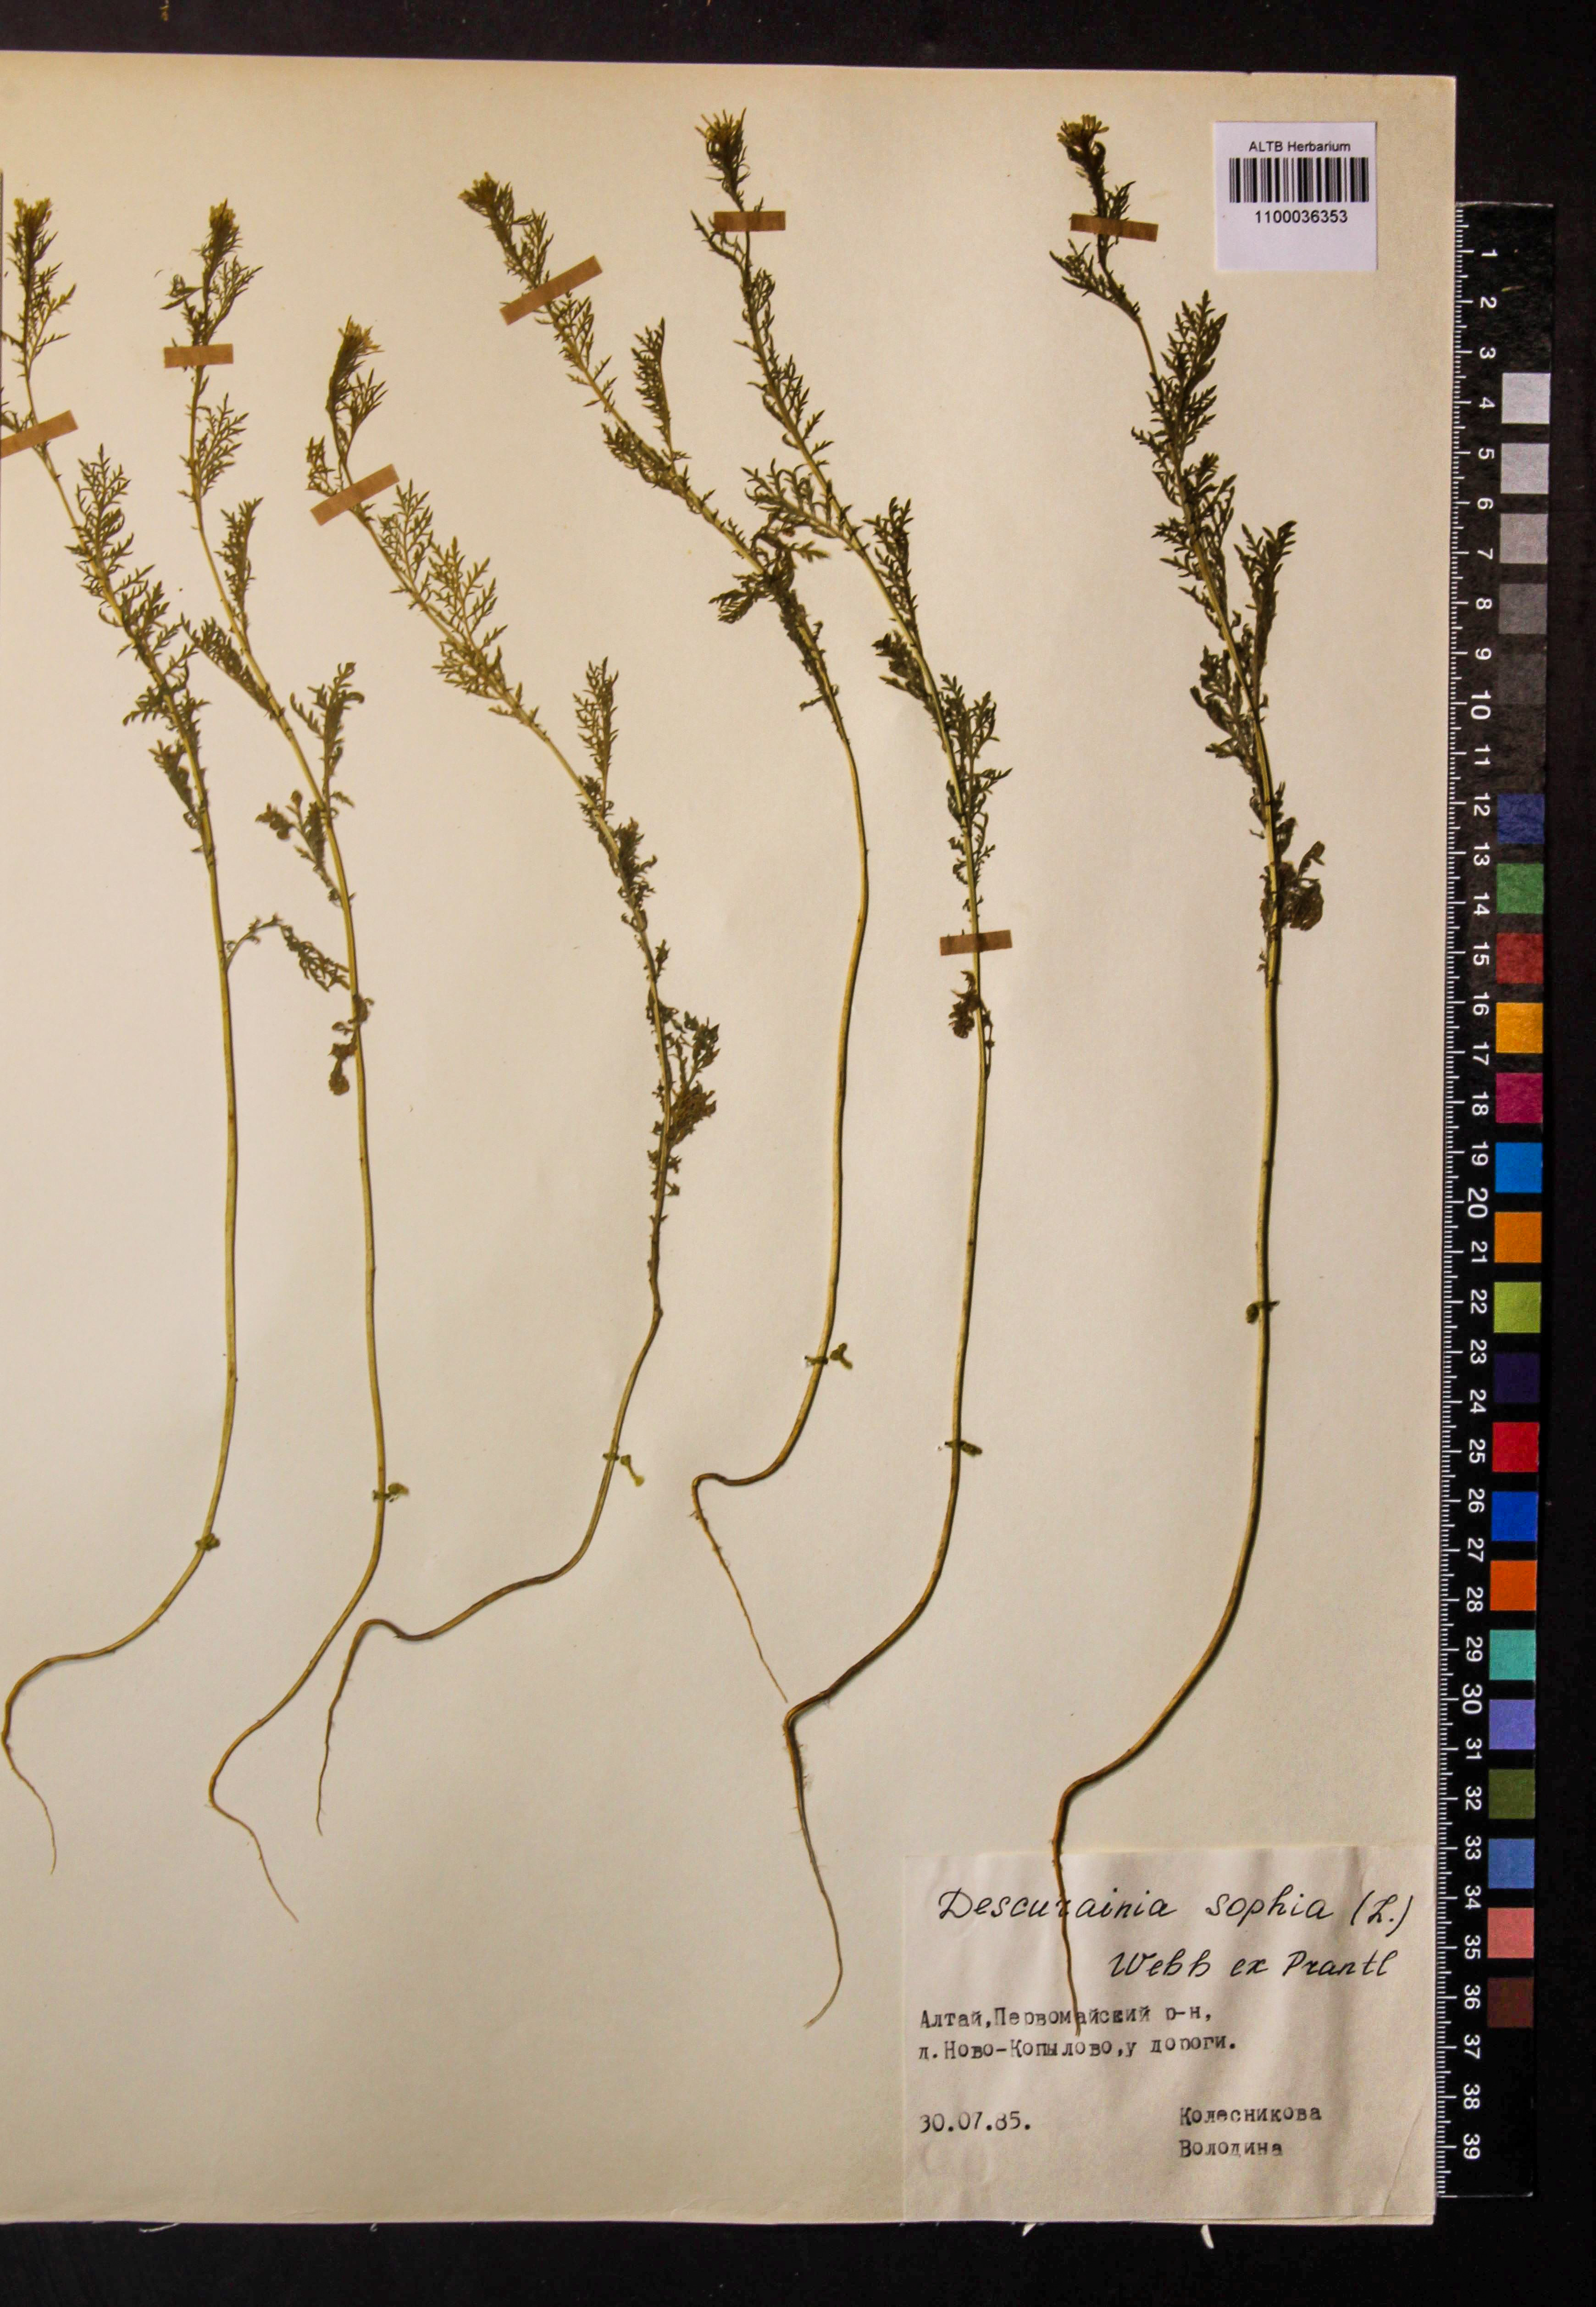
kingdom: Plantae
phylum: Tracheophyta
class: Magnoliopsida
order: Brassicales
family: Brassicaceae
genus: Descurainia
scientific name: Descurainia sophia
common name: Flixweed
